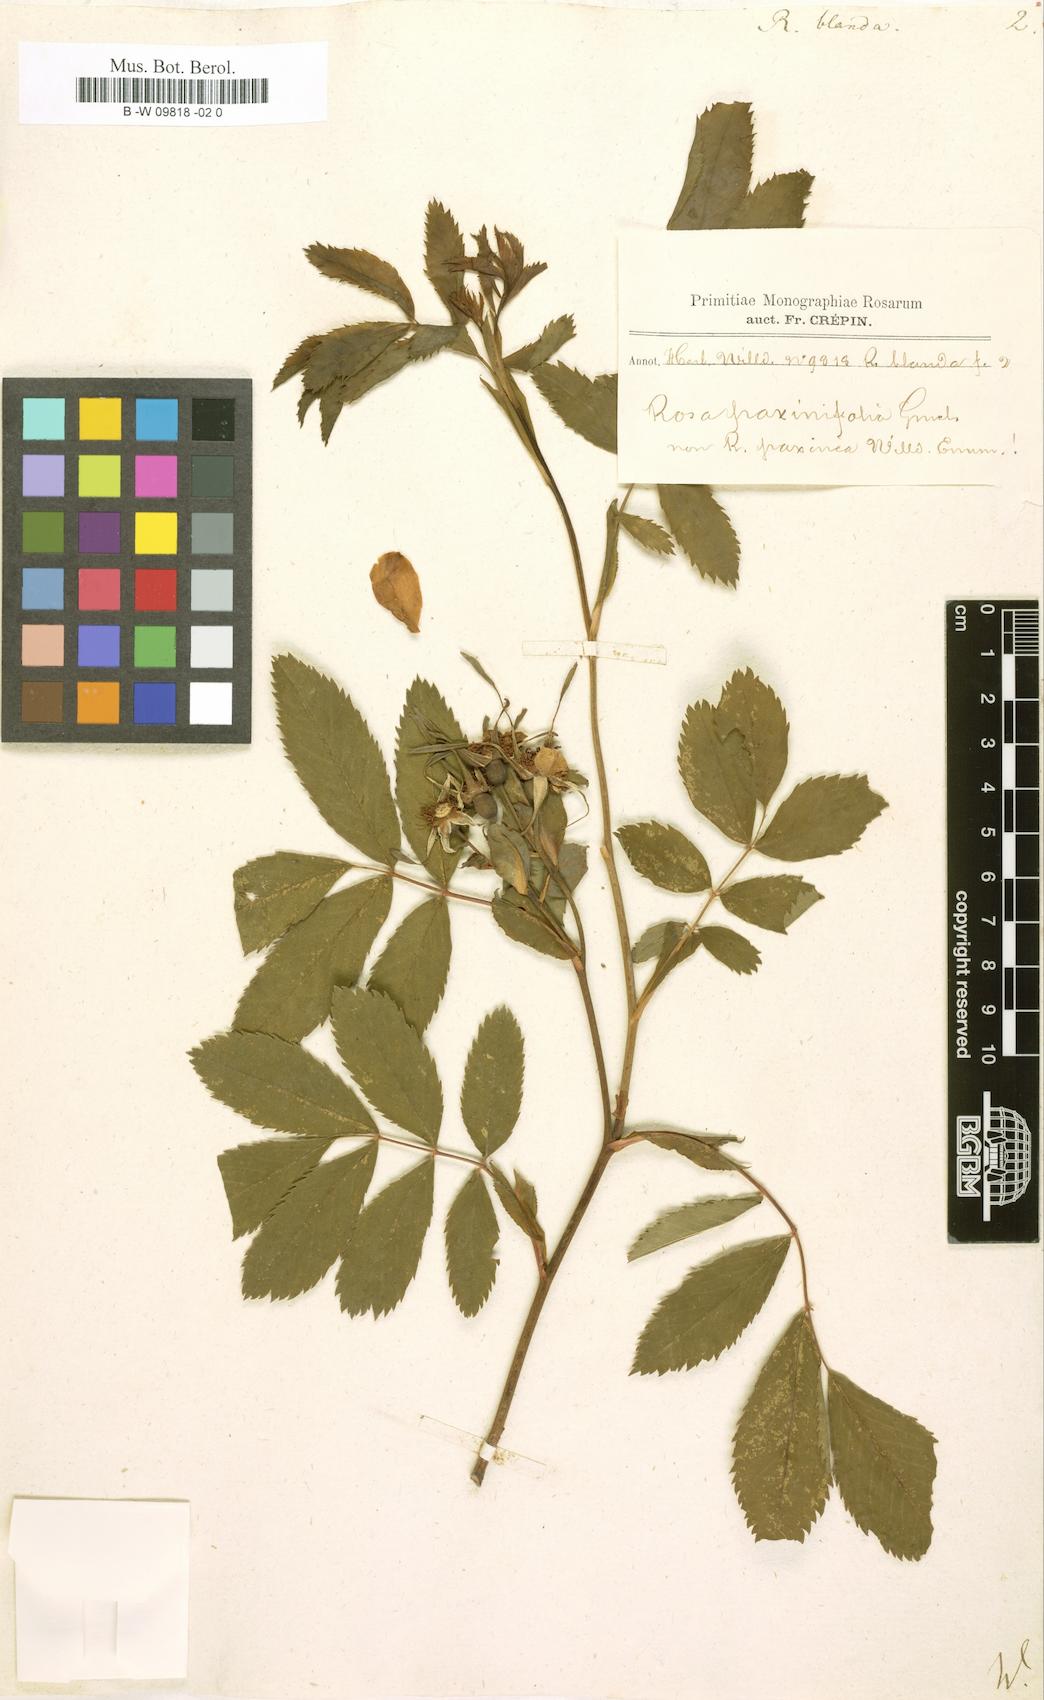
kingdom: Plantae
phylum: Tracheophyta
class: Magnoliopsida
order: Rosales
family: Rosaceae
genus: Rosa
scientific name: Rosa blanda
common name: Smooth rose
